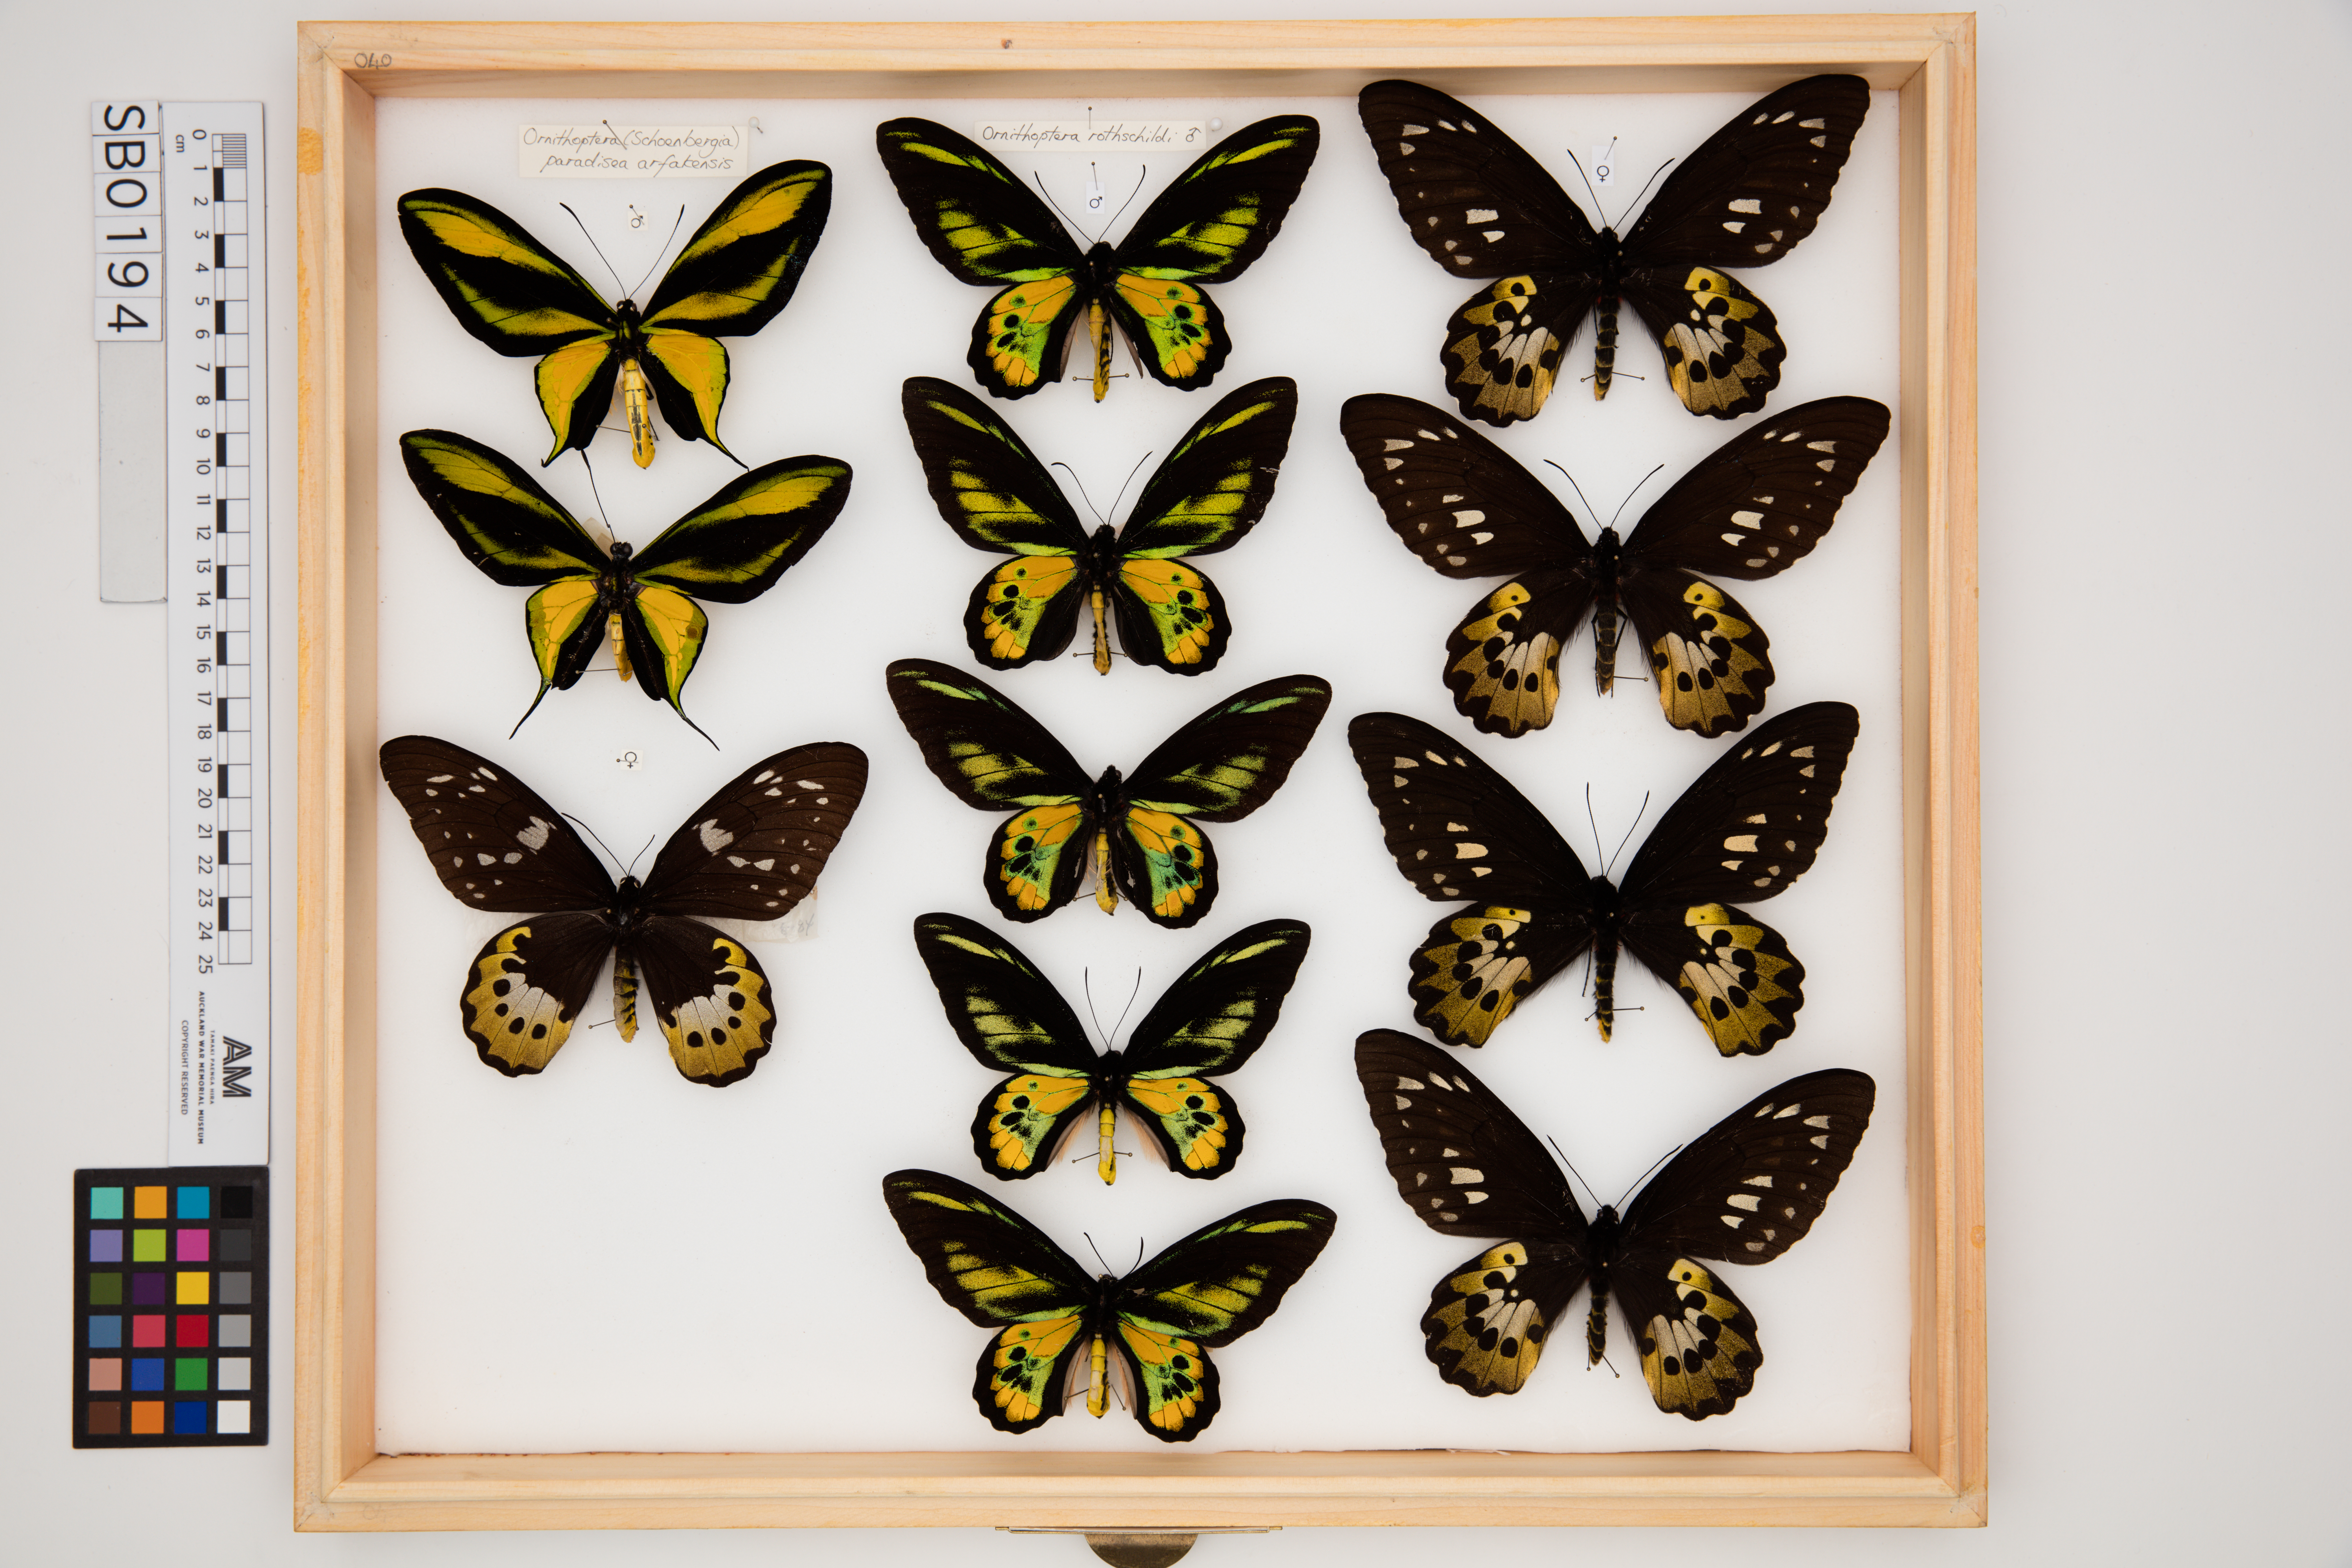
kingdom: Animalia
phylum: Arthropoda
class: Insecta
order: Lepidoptera
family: Papilionidae
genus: Ornithoptera
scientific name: Ornithoptera rothschildi
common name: Rothschild's birdwing
